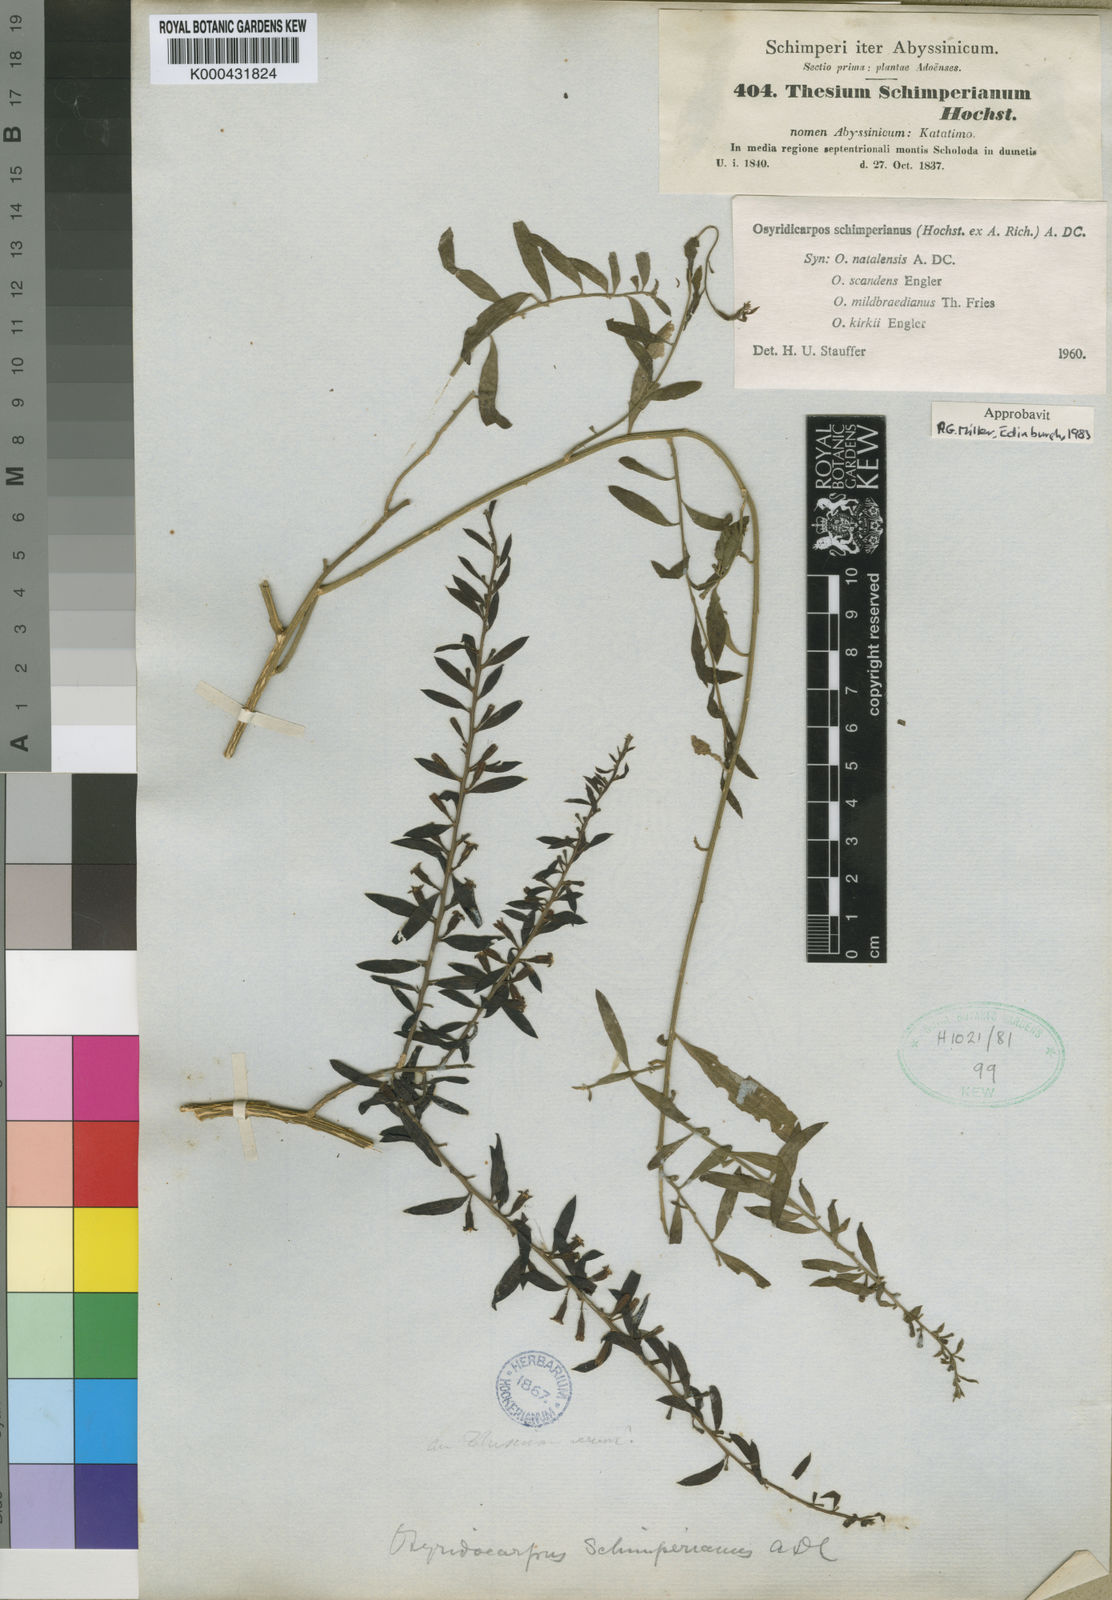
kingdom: Plantae
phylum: Tracheophyta
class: Magnoliopsida
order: Santalales
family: Thesiaceae
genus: Osyridicarpos
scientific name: Osyridicarpos schimperianus
